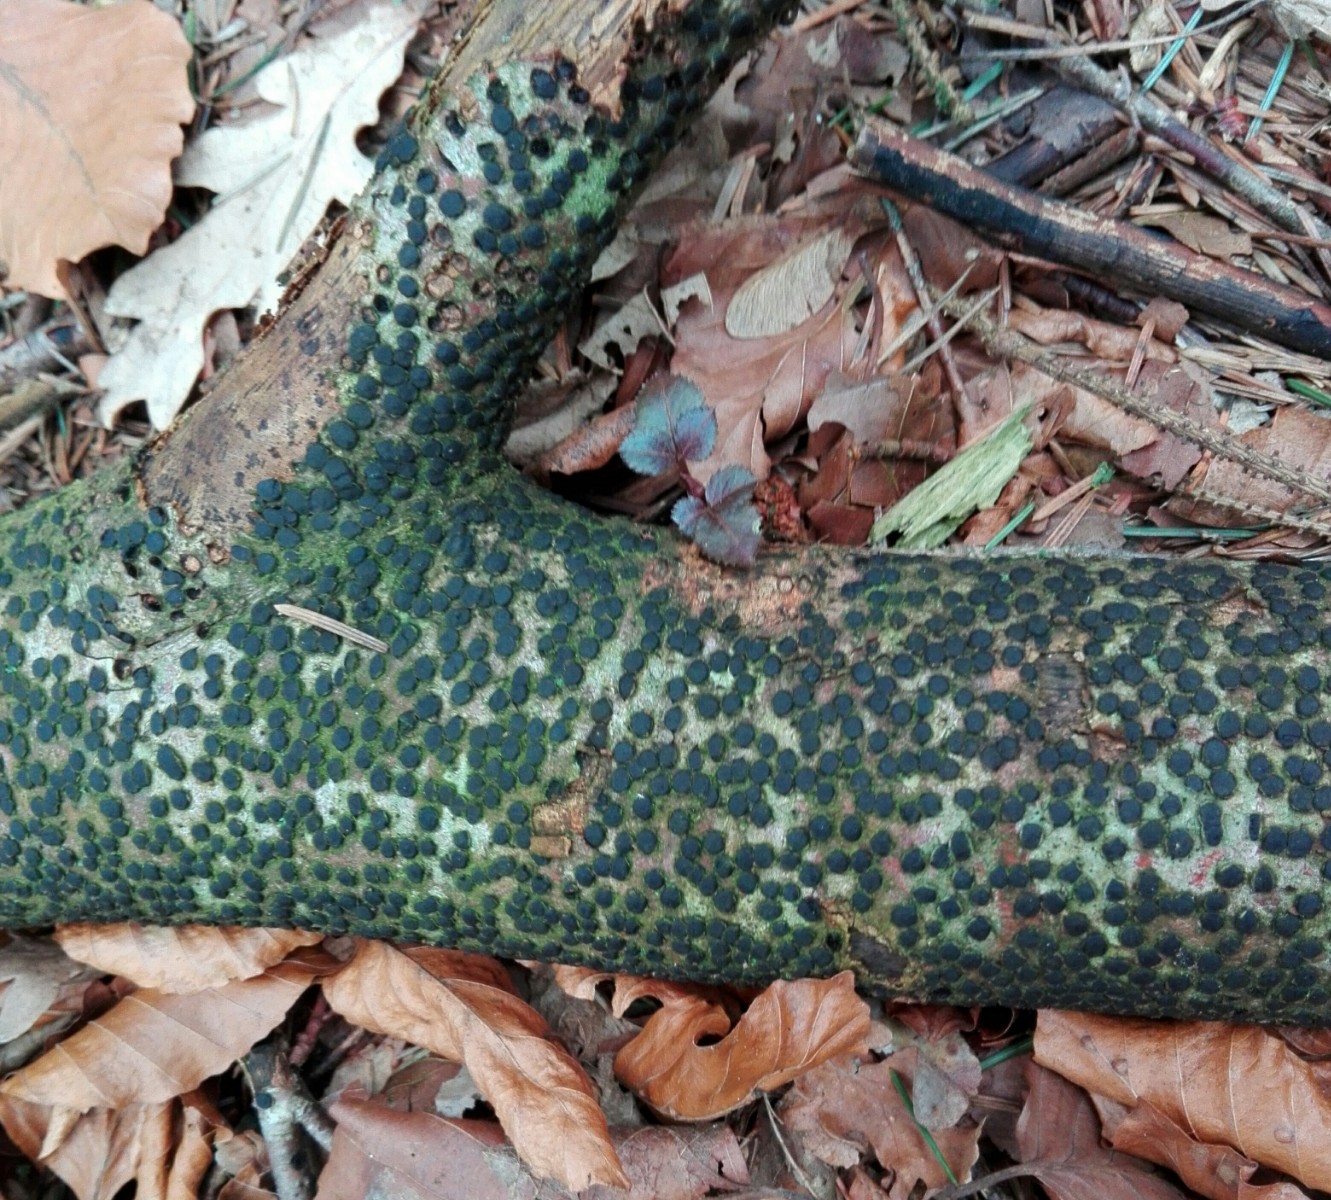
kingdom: Fungi
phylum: Ascomycota
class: Sordariomycetes
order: Xylariales
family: Diatrypaceae
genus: Diatrype
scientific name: Diatrype disciformis
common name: kant-kulskorpe
